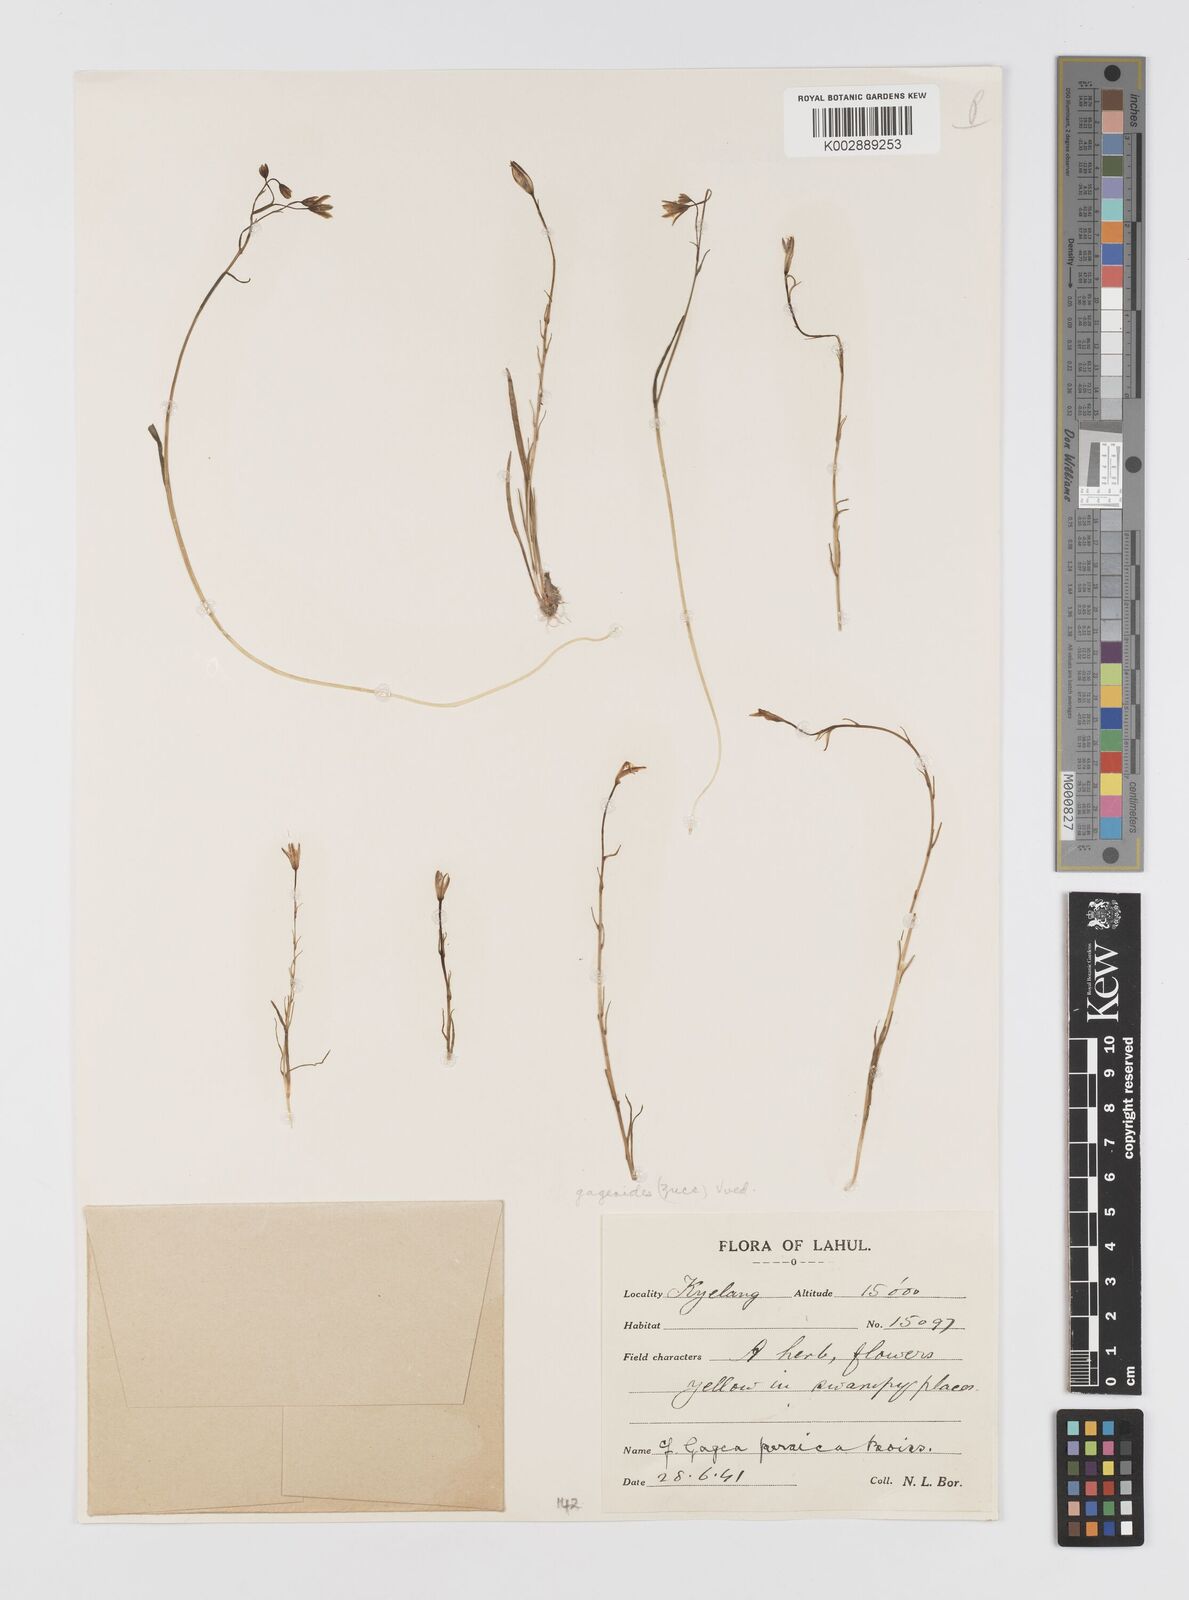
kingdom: Plantae
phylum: Tracheophyta
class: Liliopsida
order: Liliales
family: Liliaceae
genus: Gagea
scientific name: Gagea gageoides
